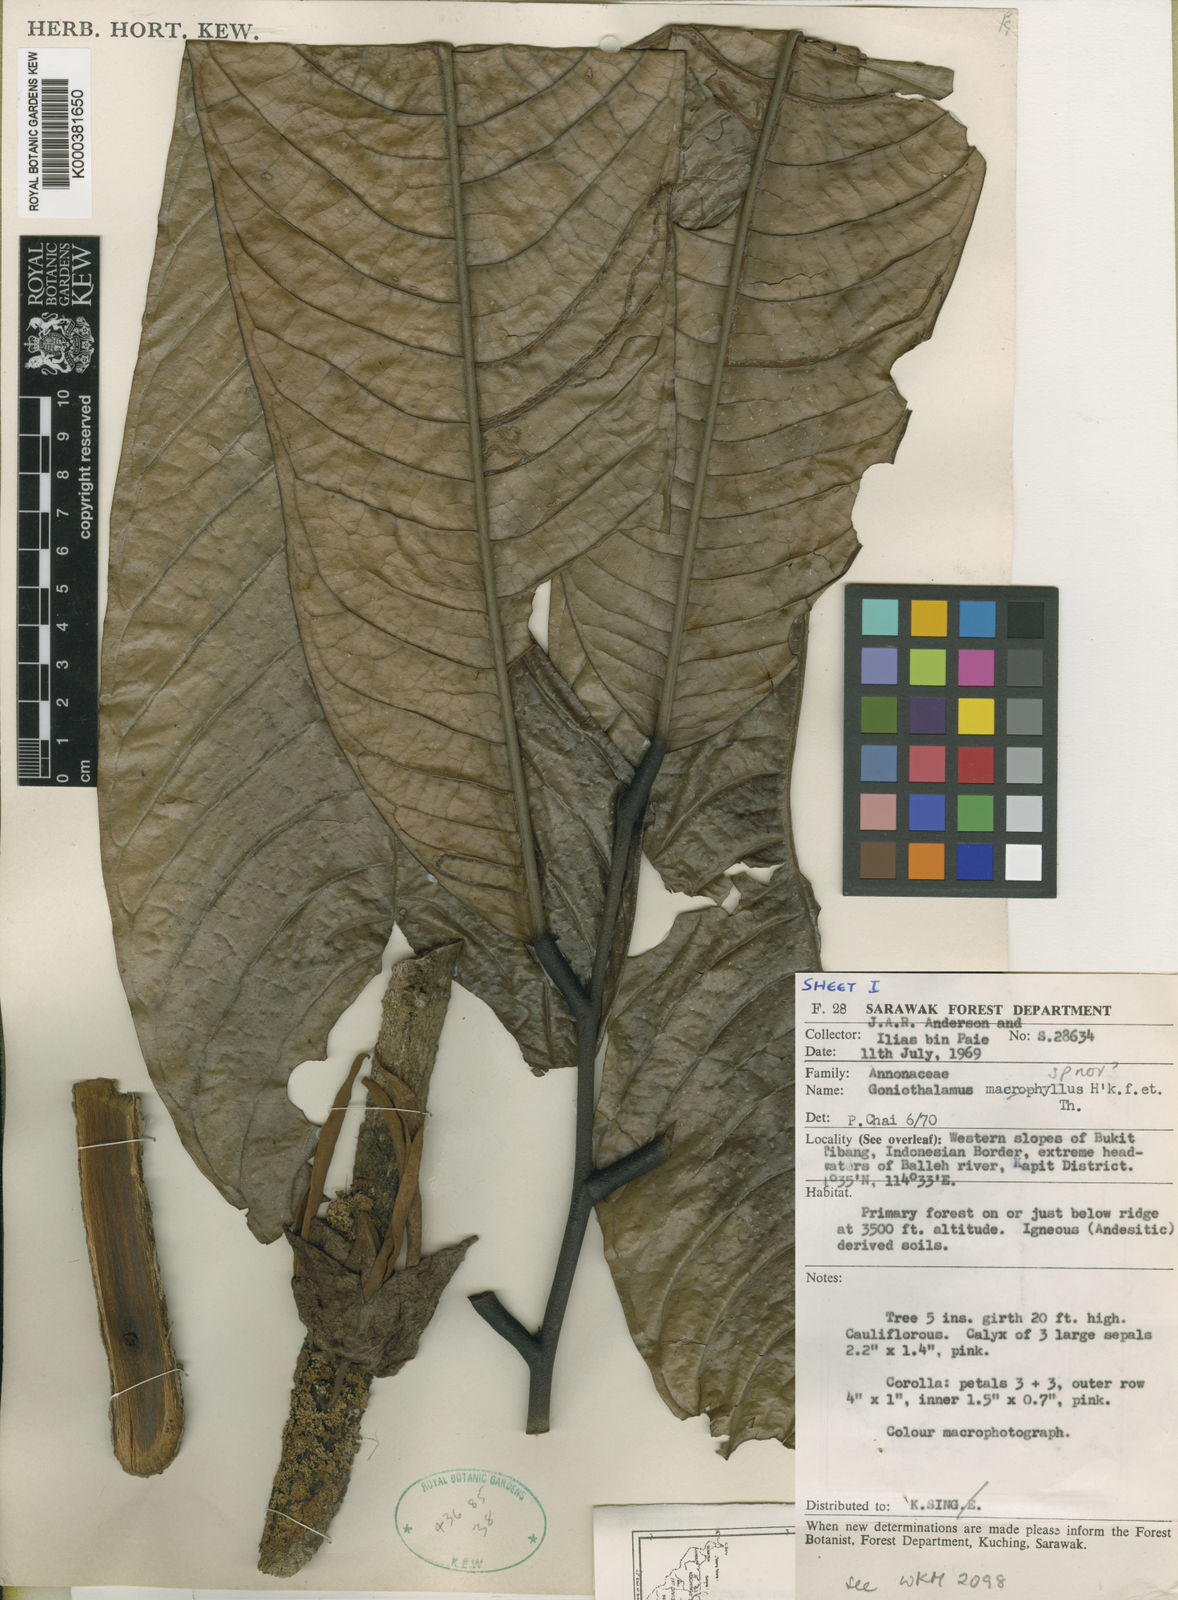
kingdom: Plantae
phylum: Tracheophyta
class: Magnoliopsida
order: Magnoliales
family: Annonaceae
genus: Goniothalamus
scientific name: Goniothalamus megalocalyx
